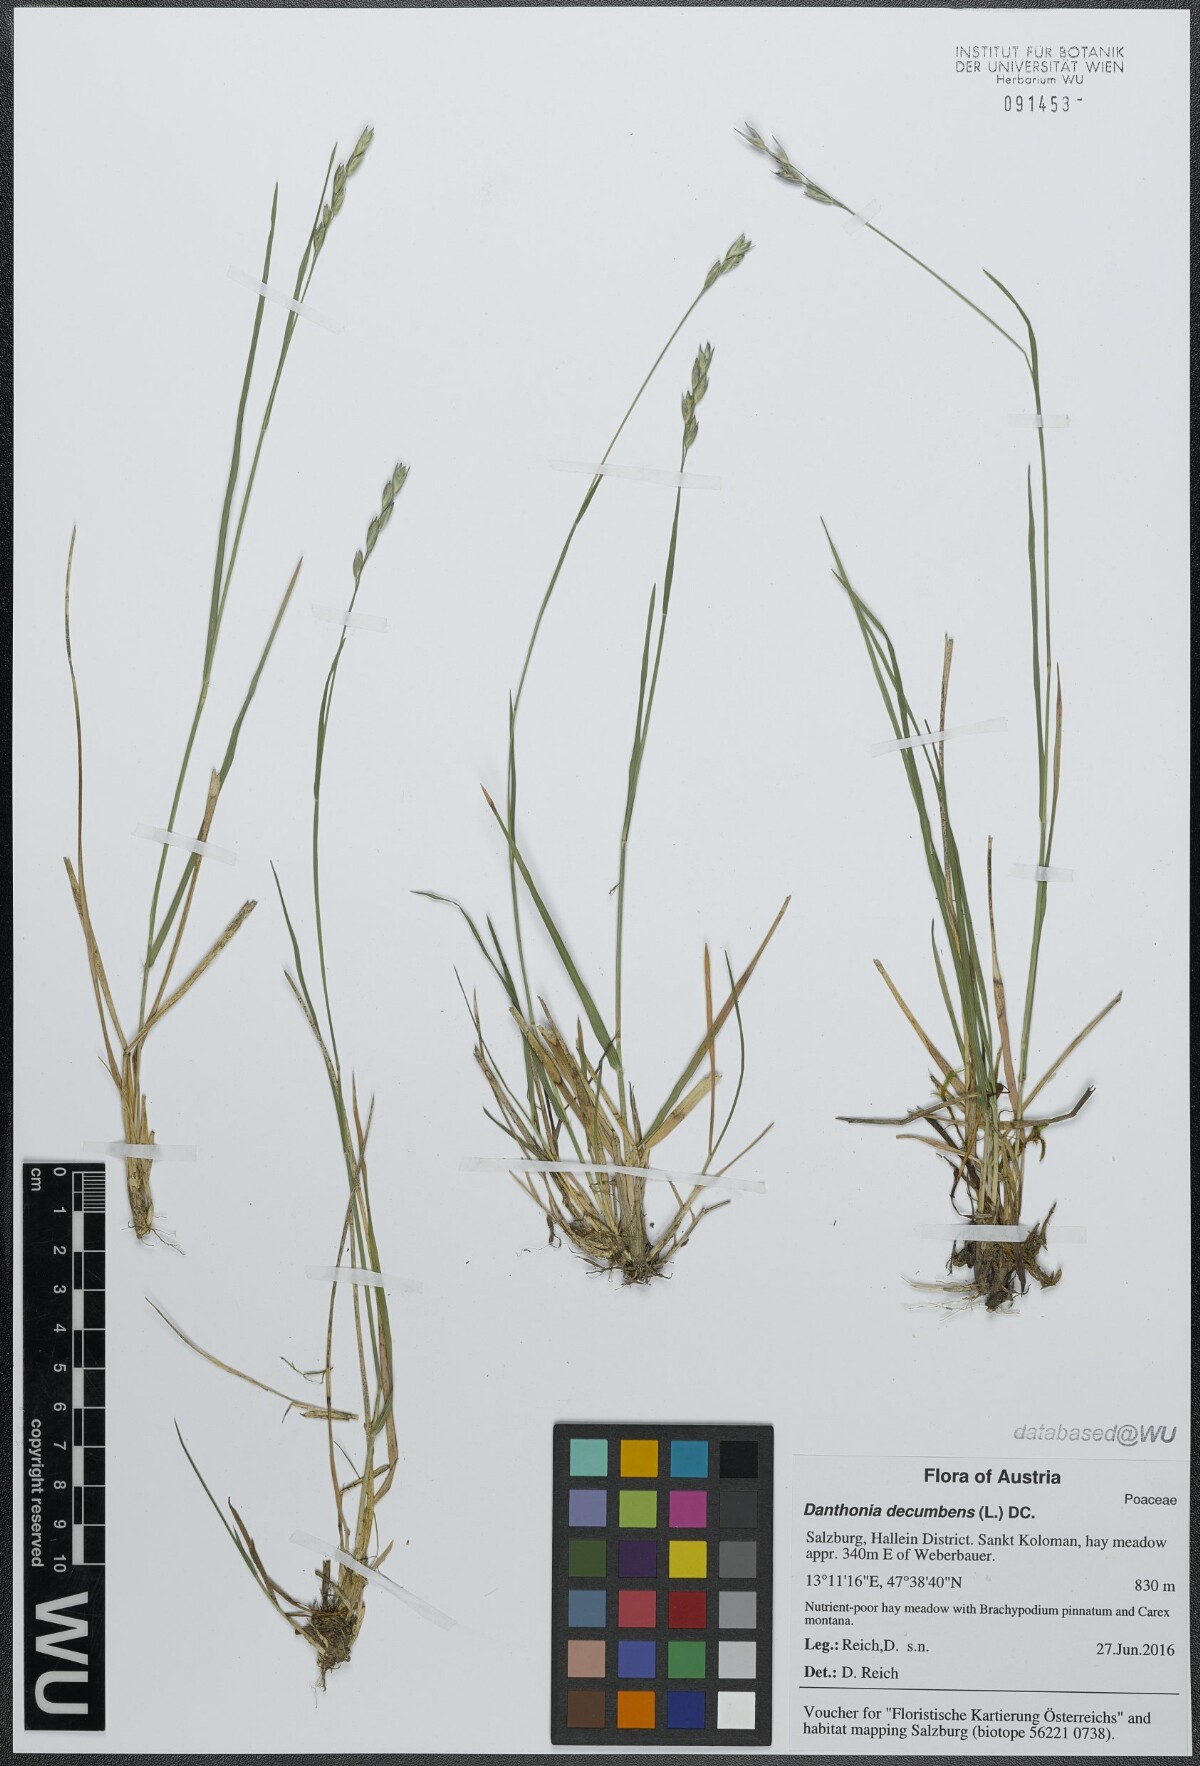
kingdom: Plantae
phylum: Tracheophyta
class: Liliopsida
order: Poales
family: Poaceae
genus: Danthonia
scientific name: Danthonia decumbens
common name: Common heathgrass
